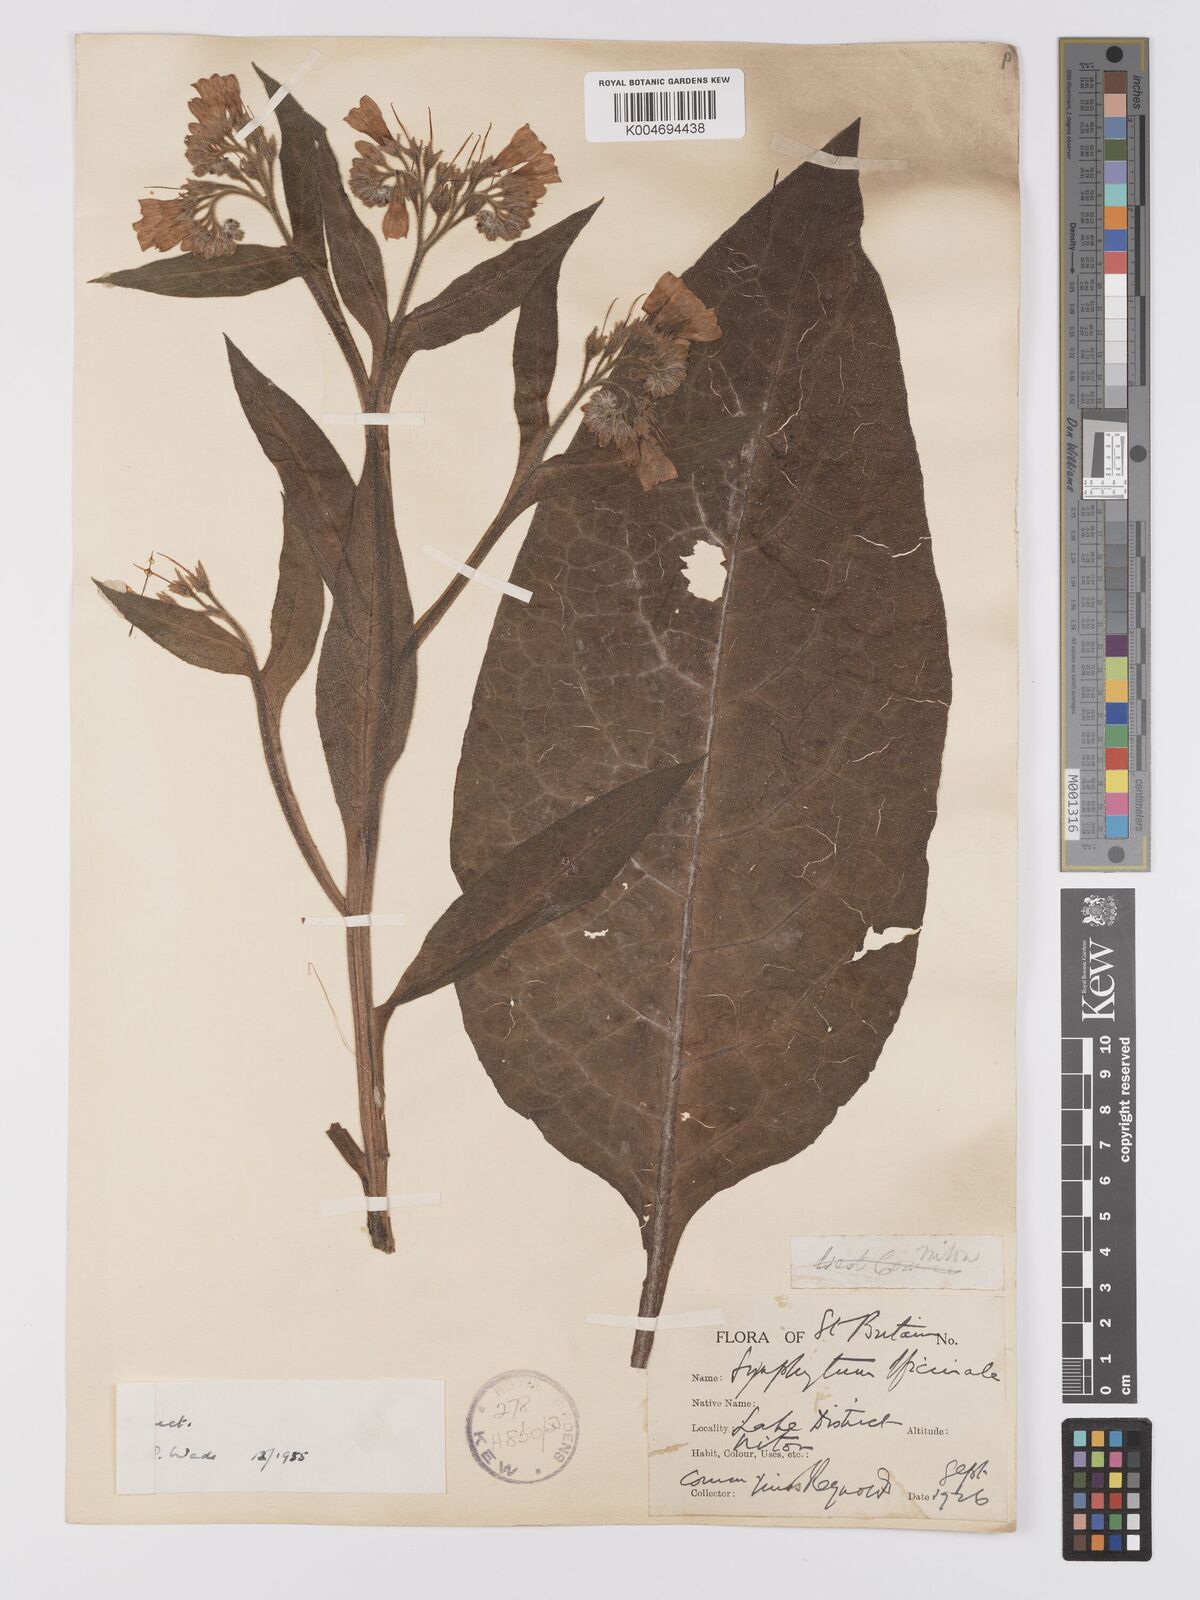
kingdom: Plantae
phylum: Tracheophyta
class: Magnoliopsida
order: Boraginales
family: Boraginaceae
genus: Symphytum
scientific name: Symphytum officinale
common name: Common comfrey
